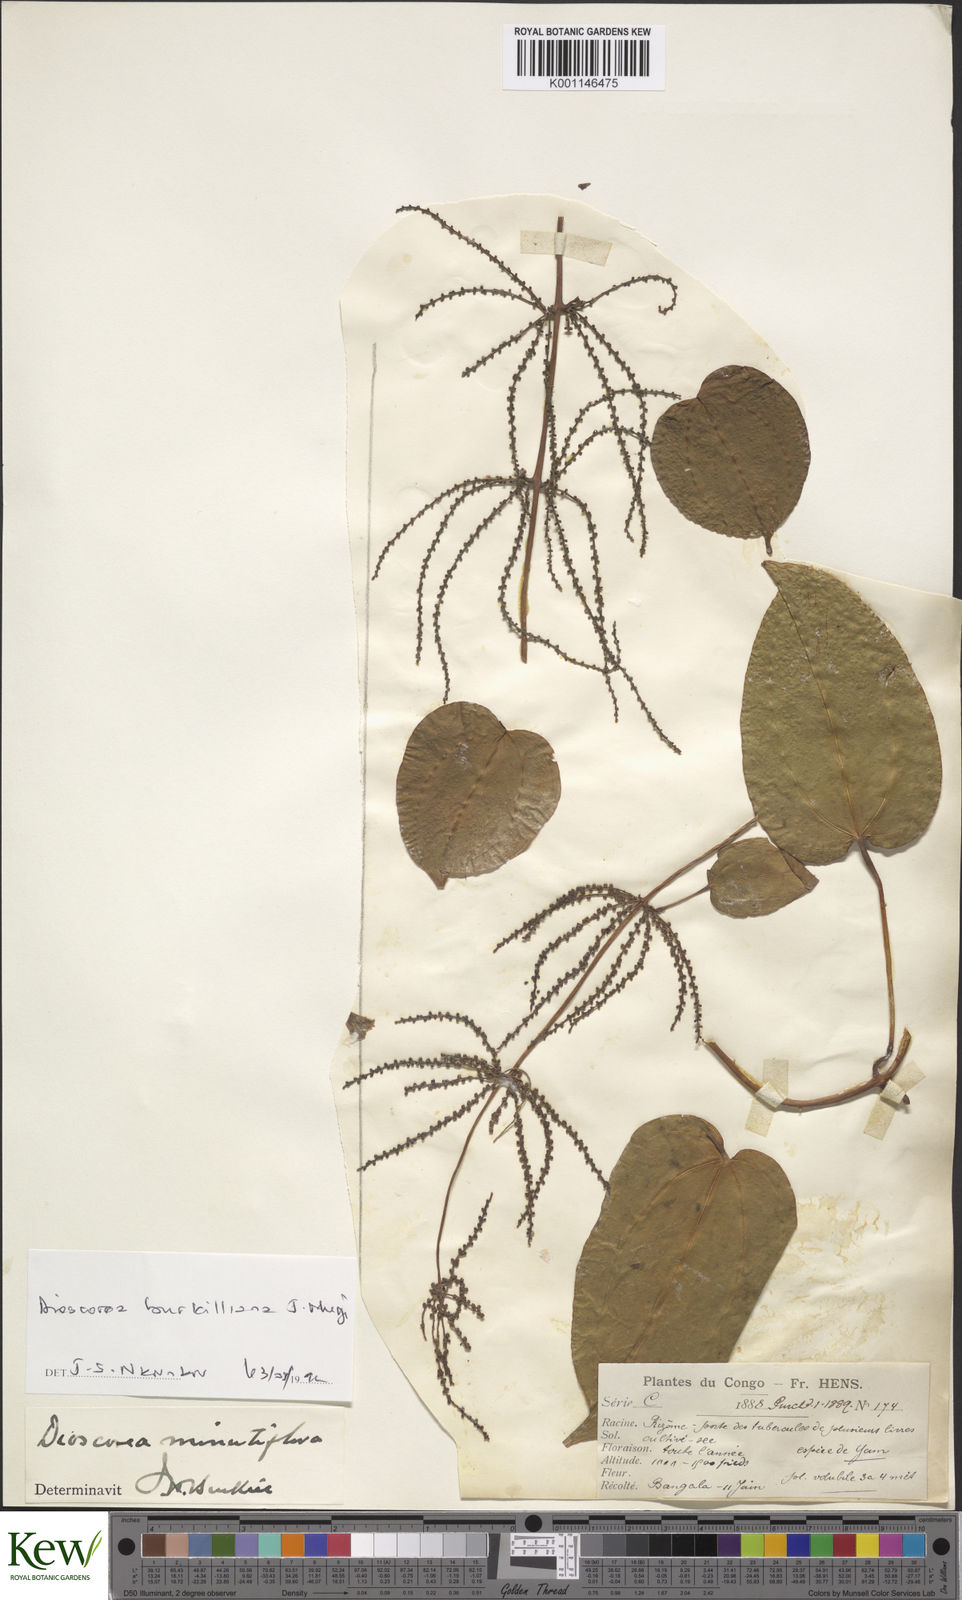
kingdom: Plantae
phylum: Tracheophyta
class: Liliopsida
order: Dioscoreales
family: Dioscoreaceae
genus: Dioscorea
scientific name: Dioscorea minutiflora
